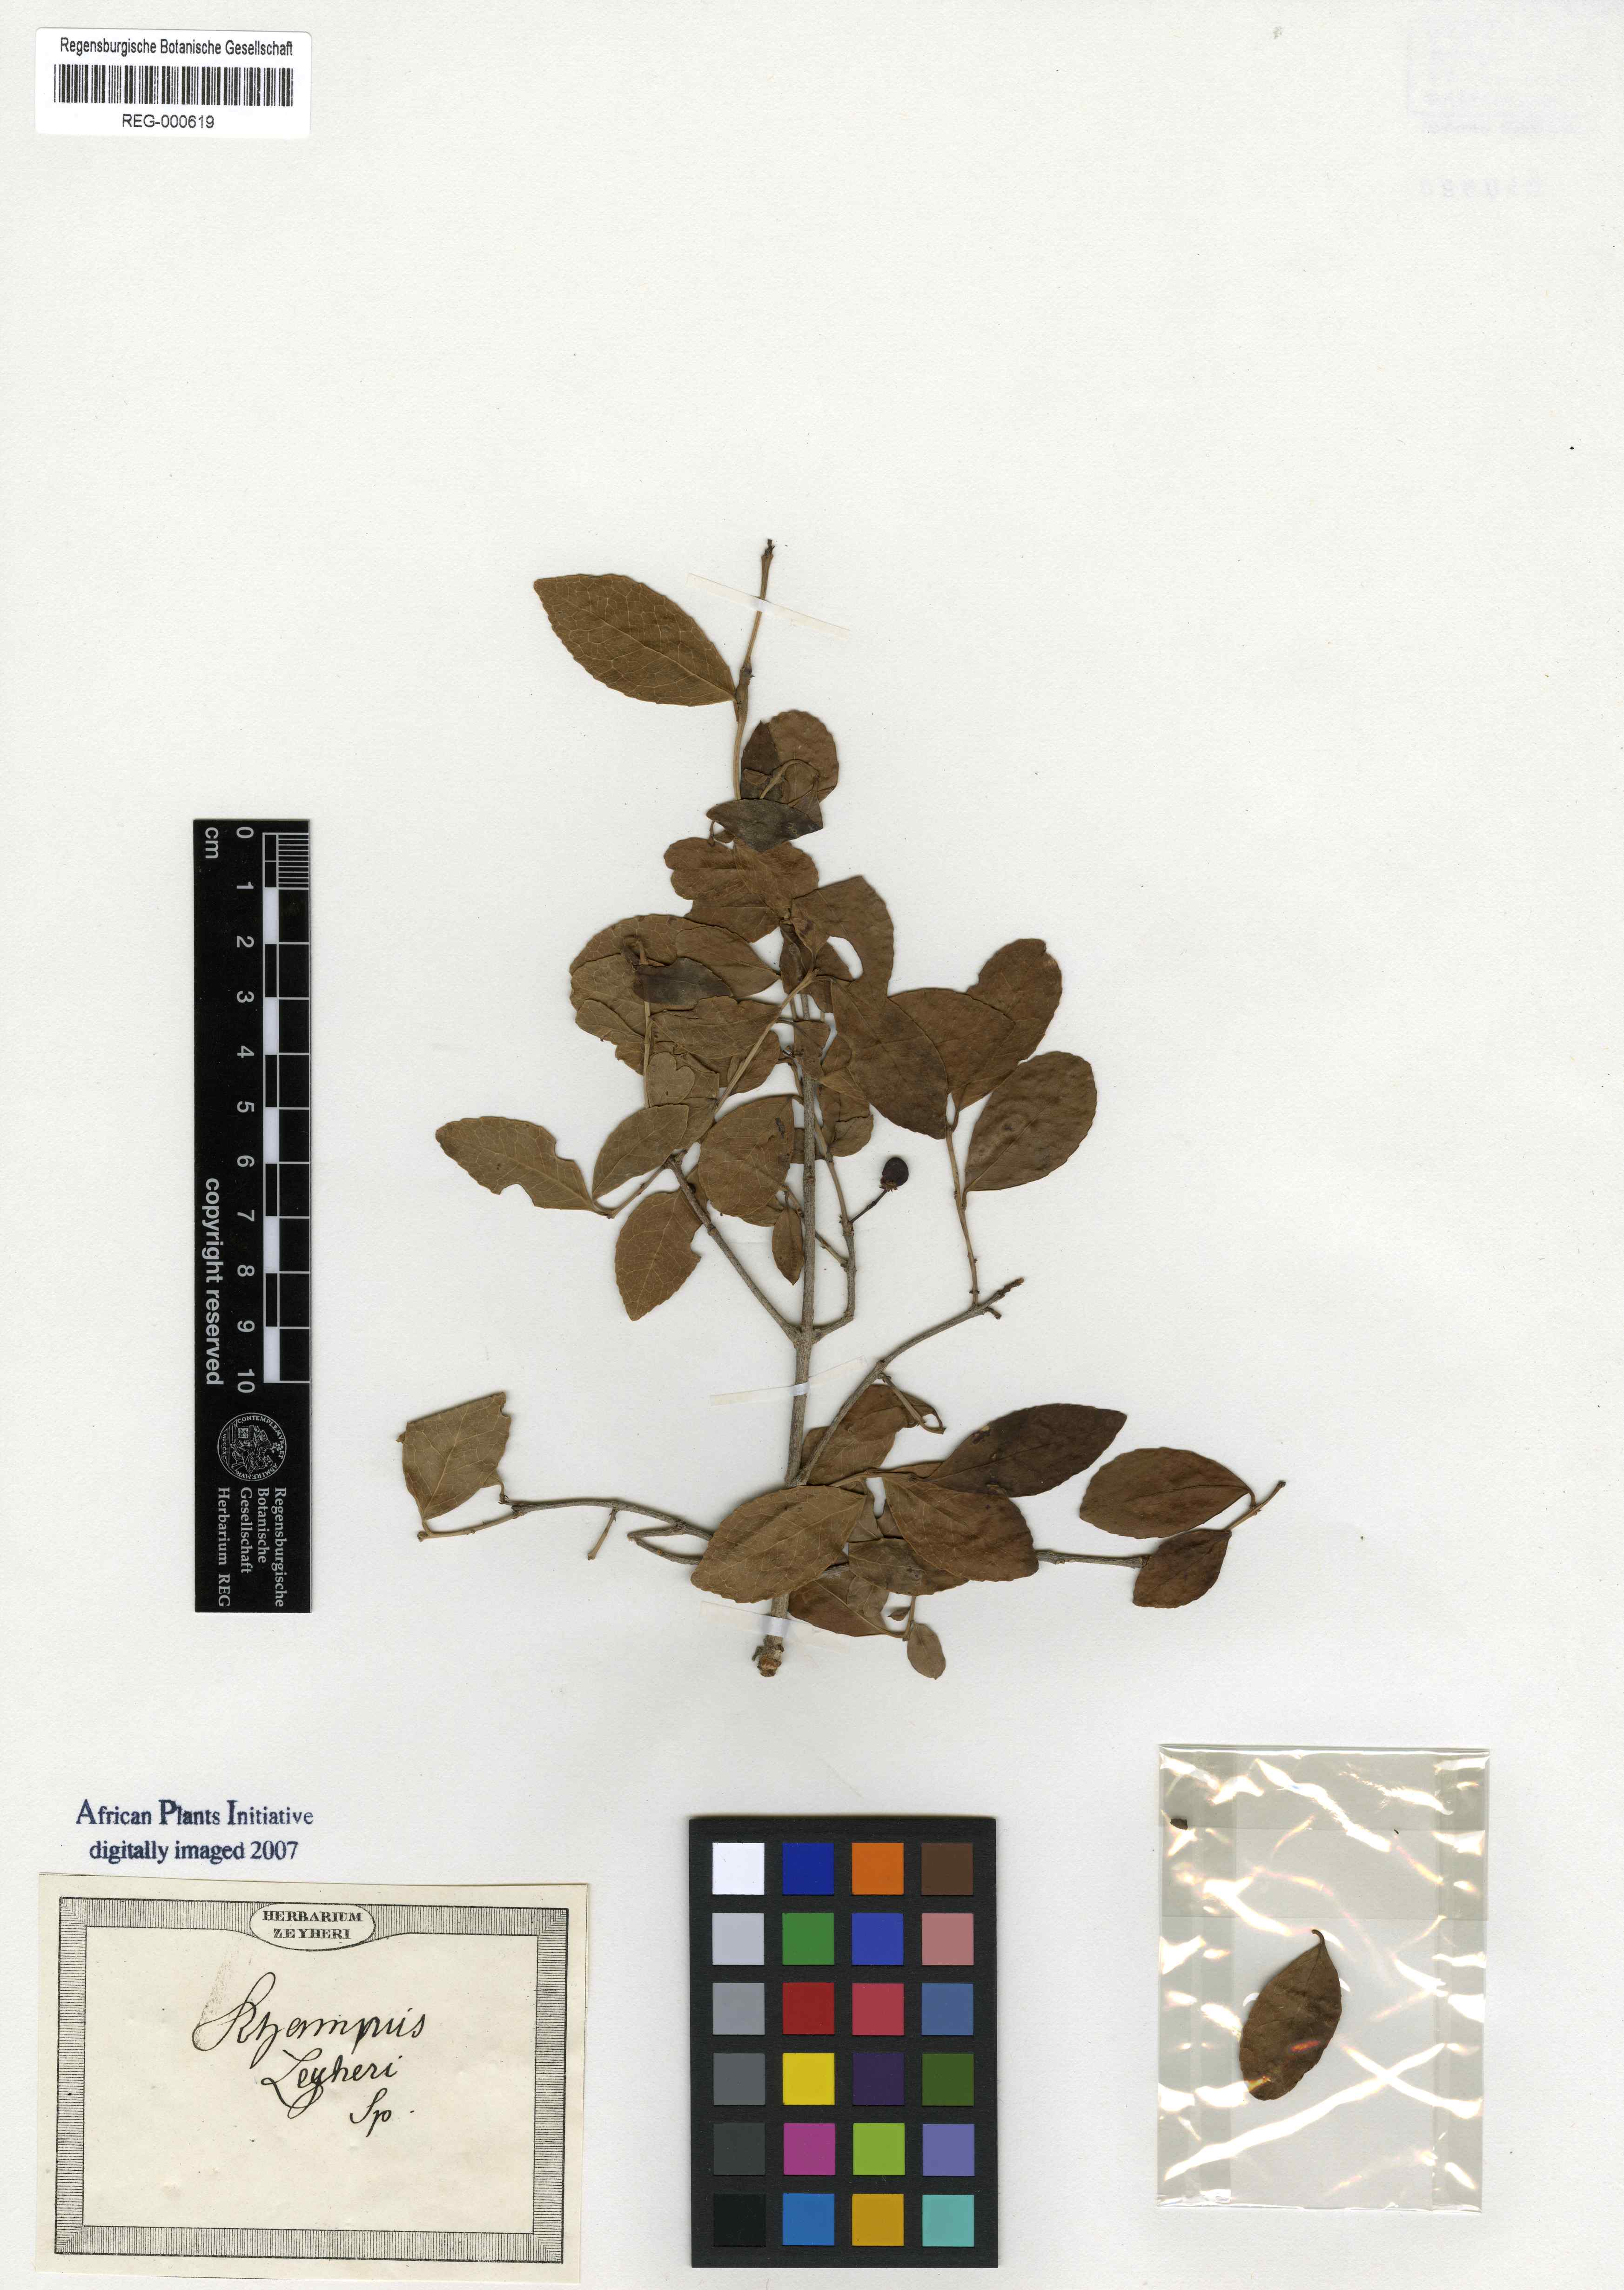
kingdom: Plantae
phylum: Tracheophyta
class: Magnoliopsida
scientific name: Magnoliopsida
